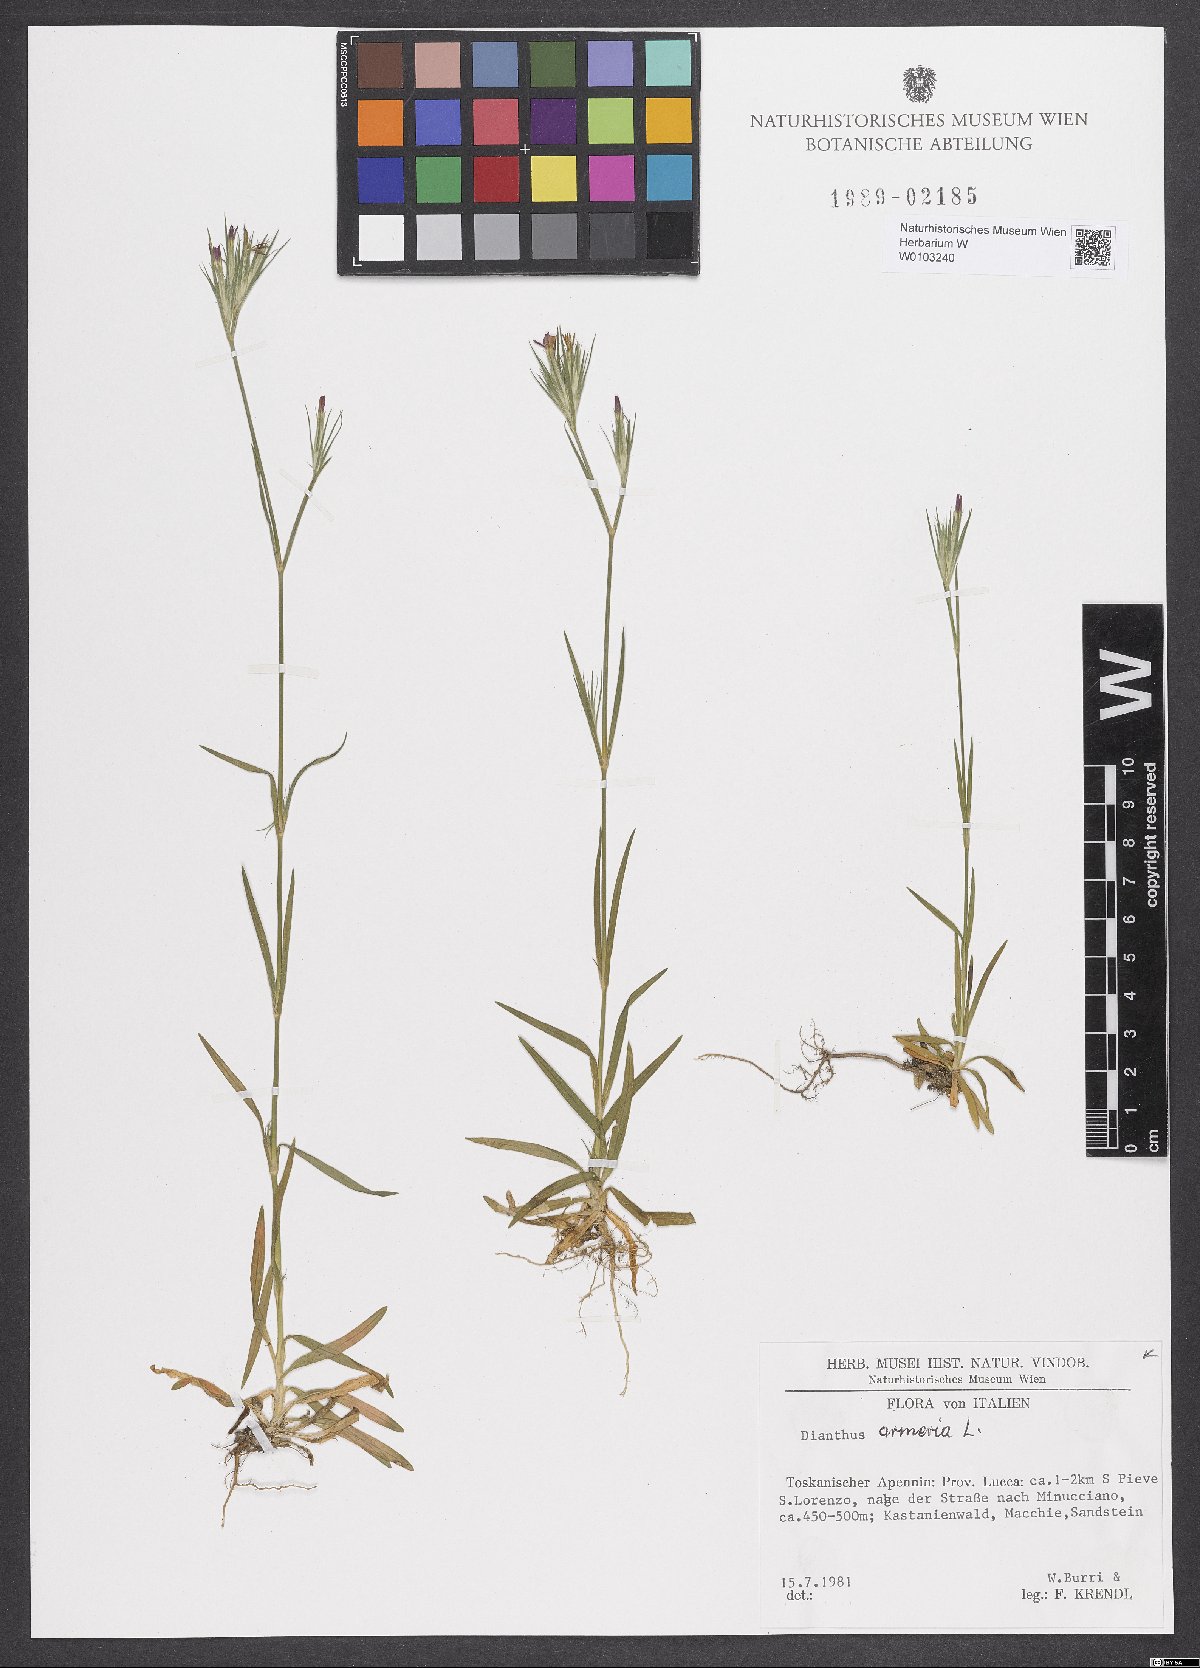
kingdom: Plantae
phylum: Tracheophyta
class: Magnoliopsida
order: Caryophyllales
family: Caryophyllaceae
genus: Dianthus
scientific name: Dianthus armeria
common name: Deptford pink
